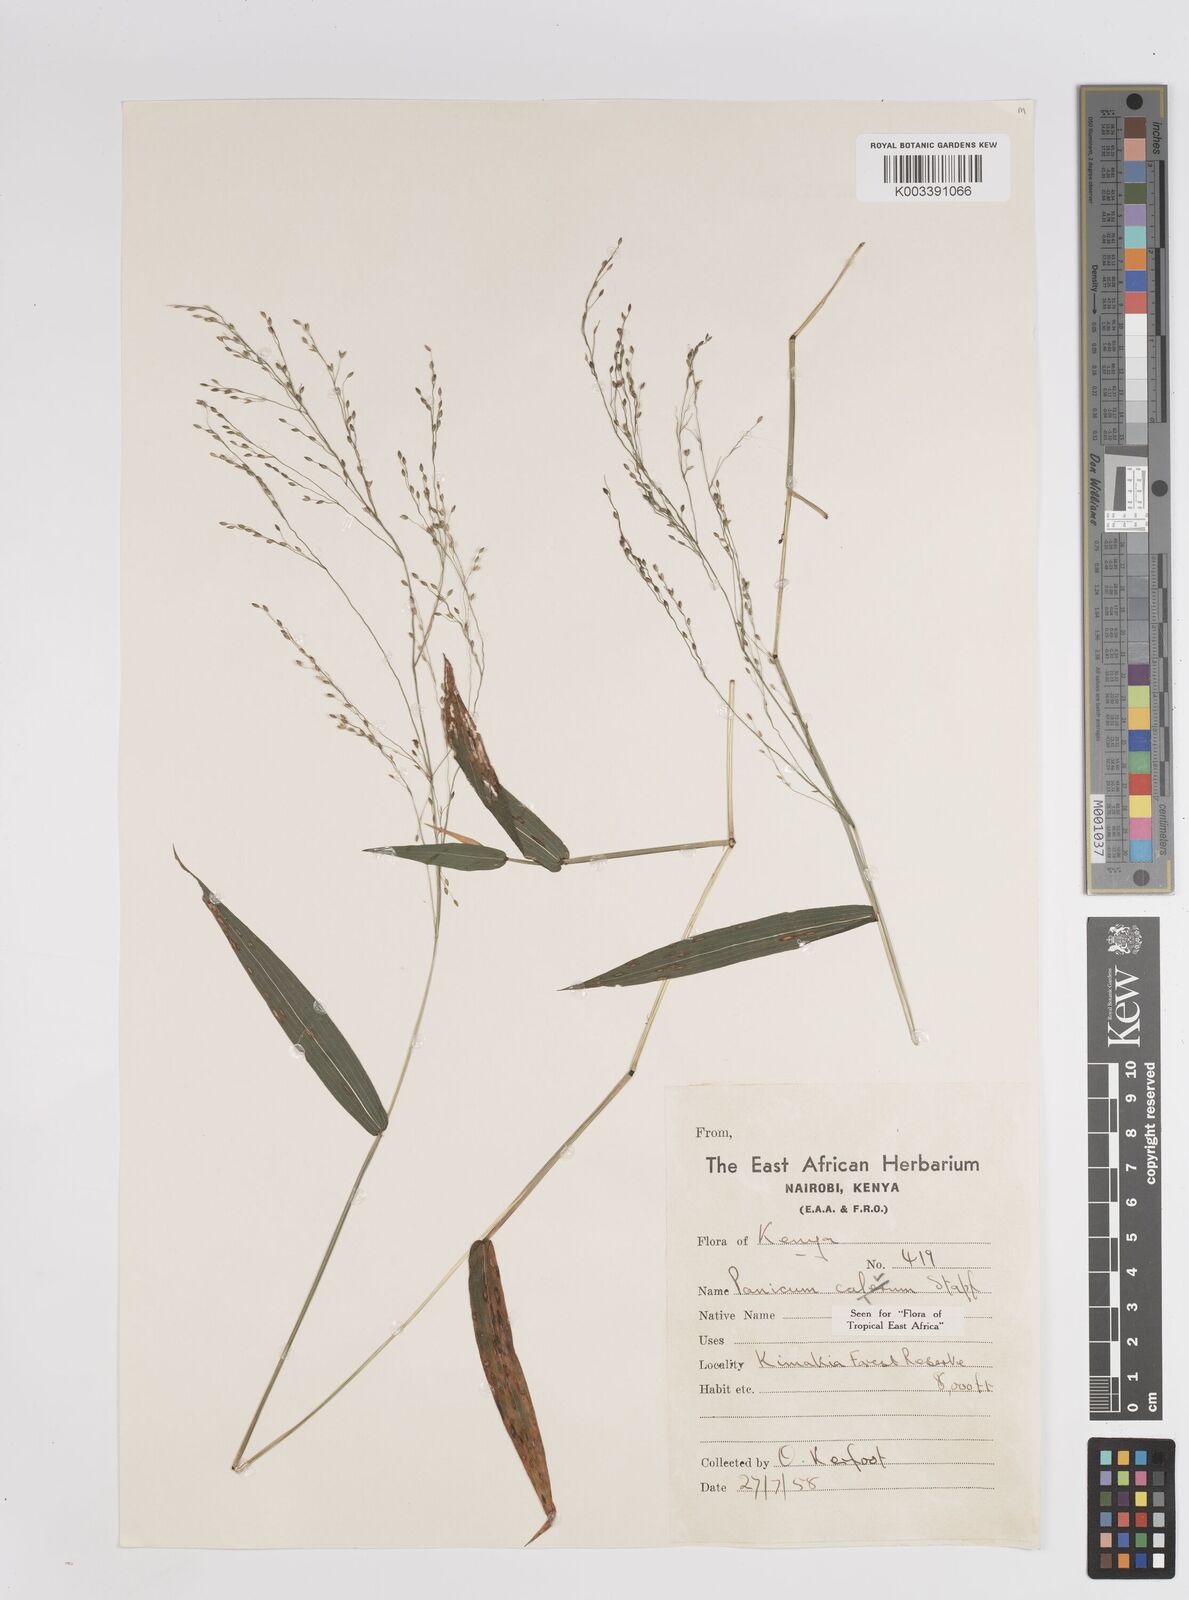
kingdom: Plantae
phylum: Tracheophyta
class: Liliopsida
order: Poales
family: Poaceae
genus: Panicum
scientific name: Panicum calvum
